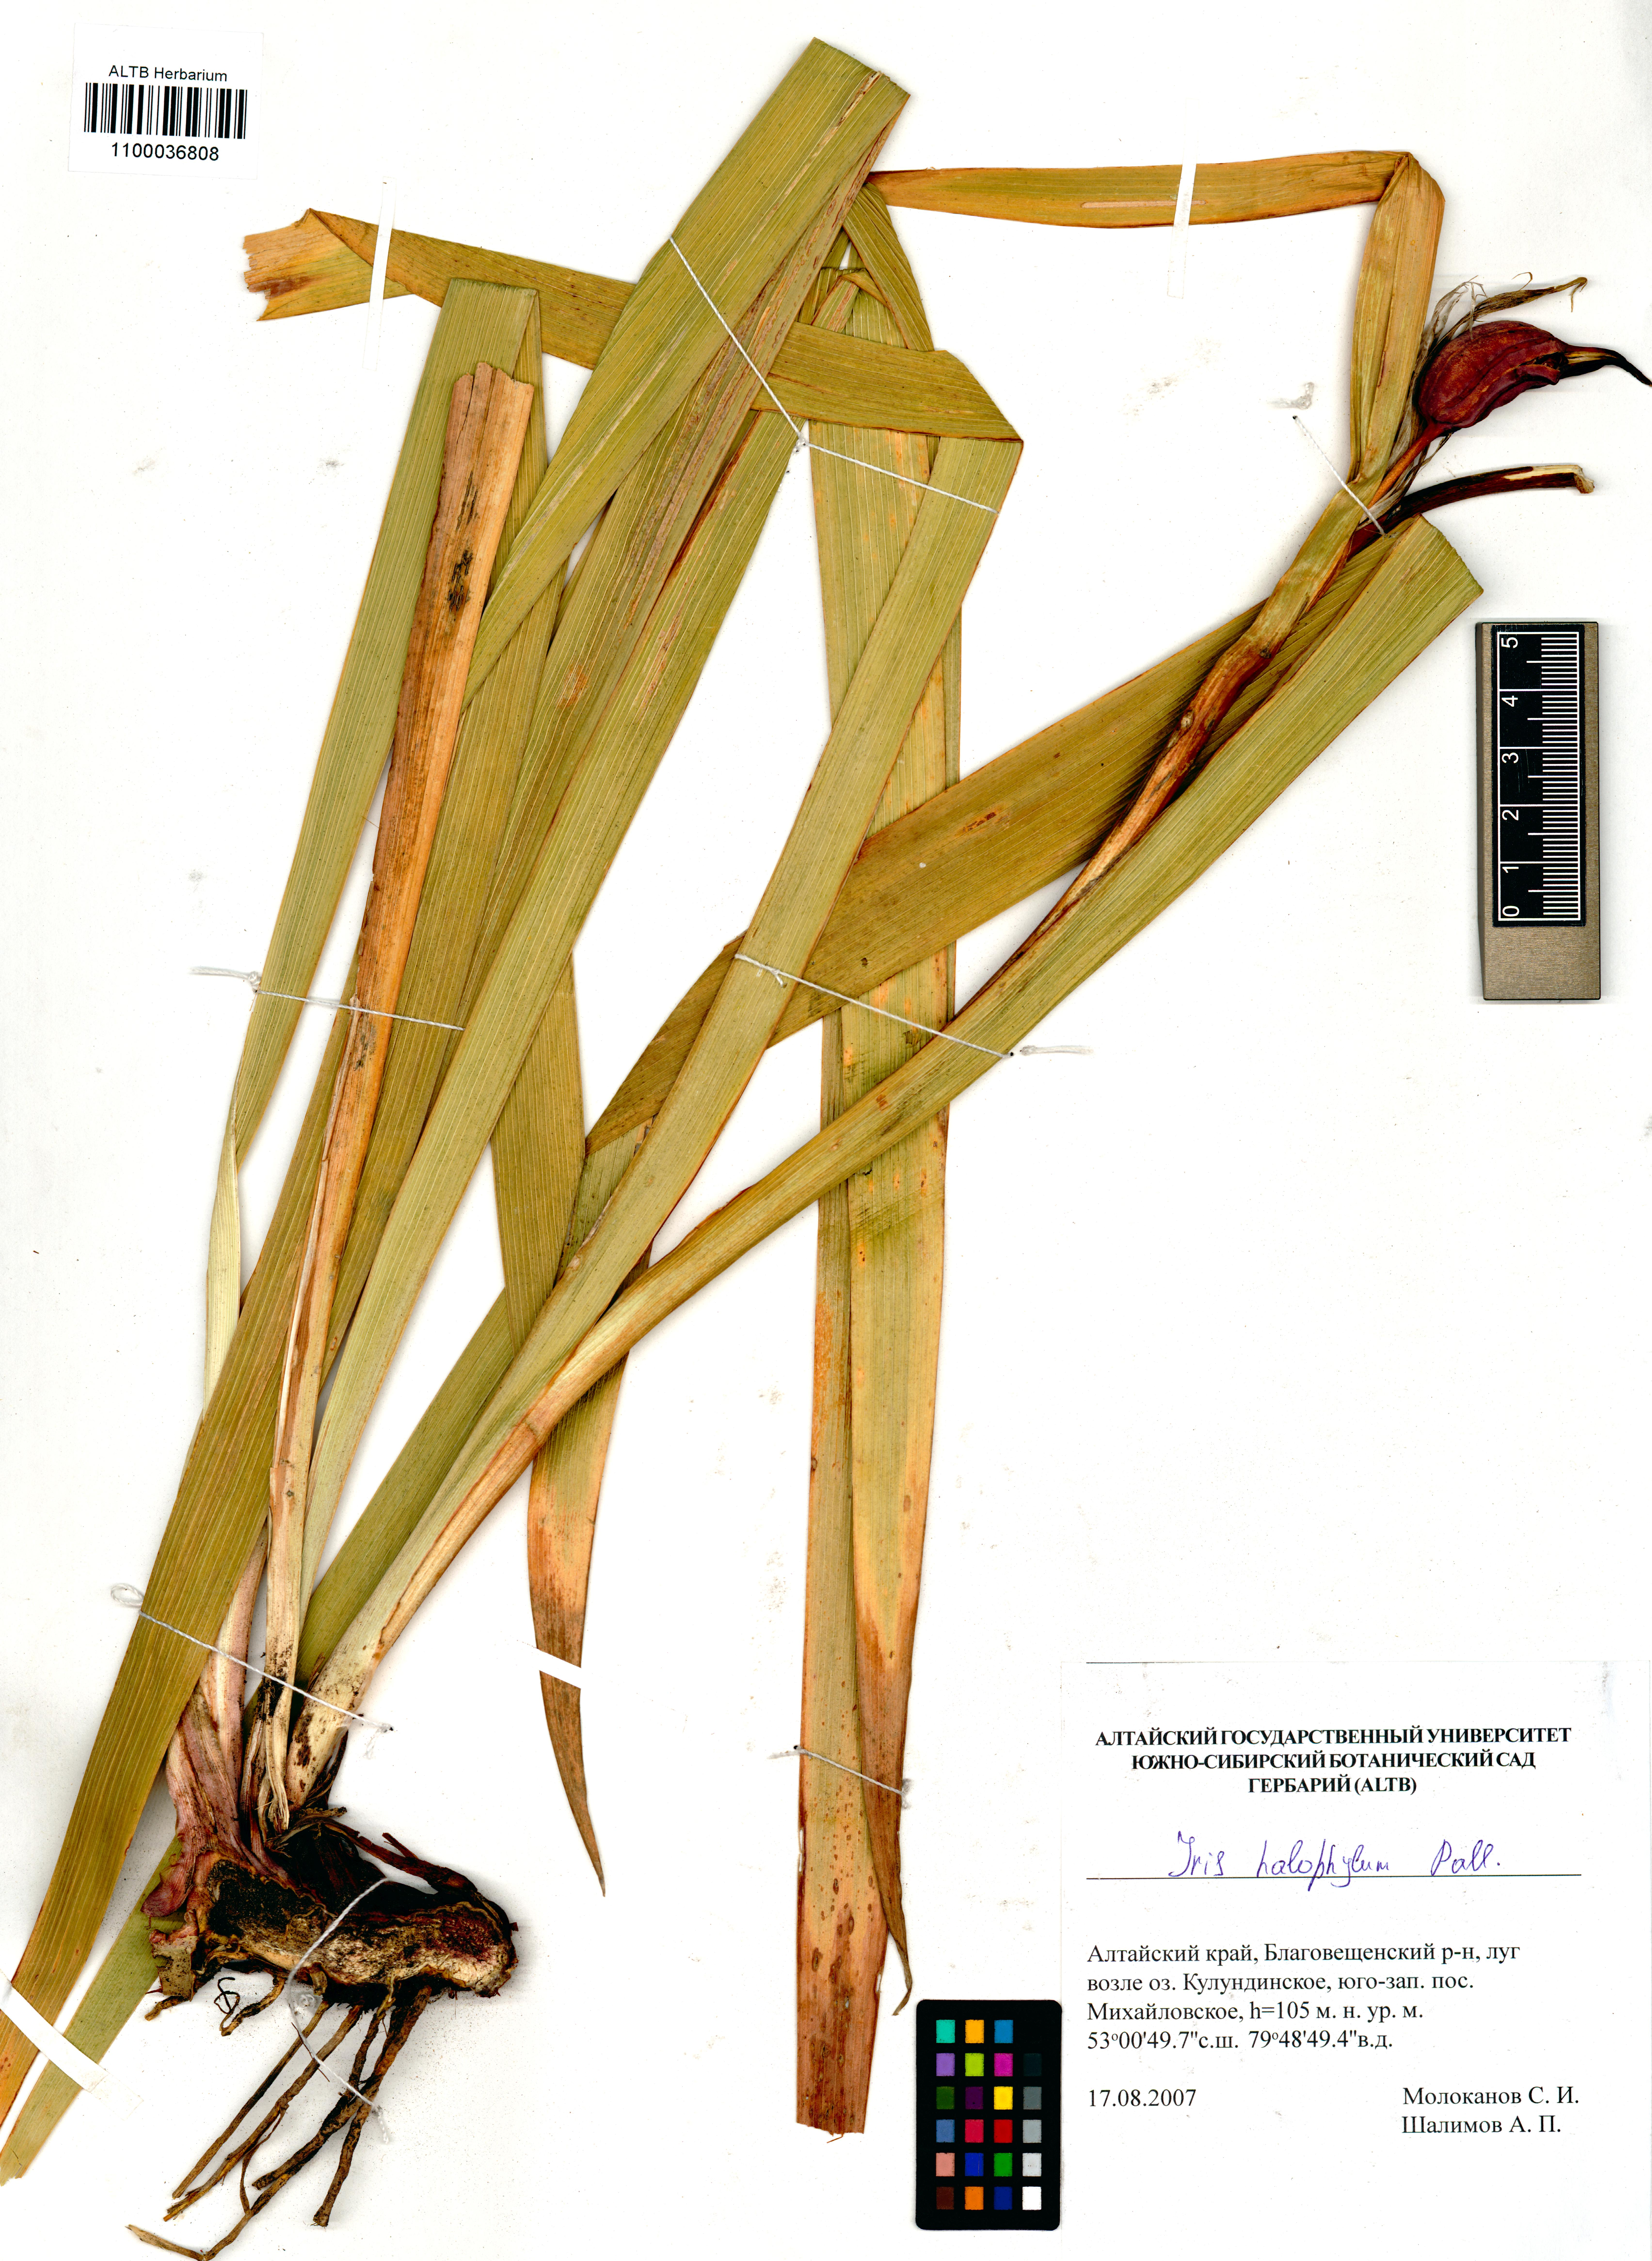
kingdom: Plantae
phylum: Tracheophyta
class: Liliopsida
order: Asparagales
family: Iridaceae
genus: Iris
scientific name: Iris halophila
